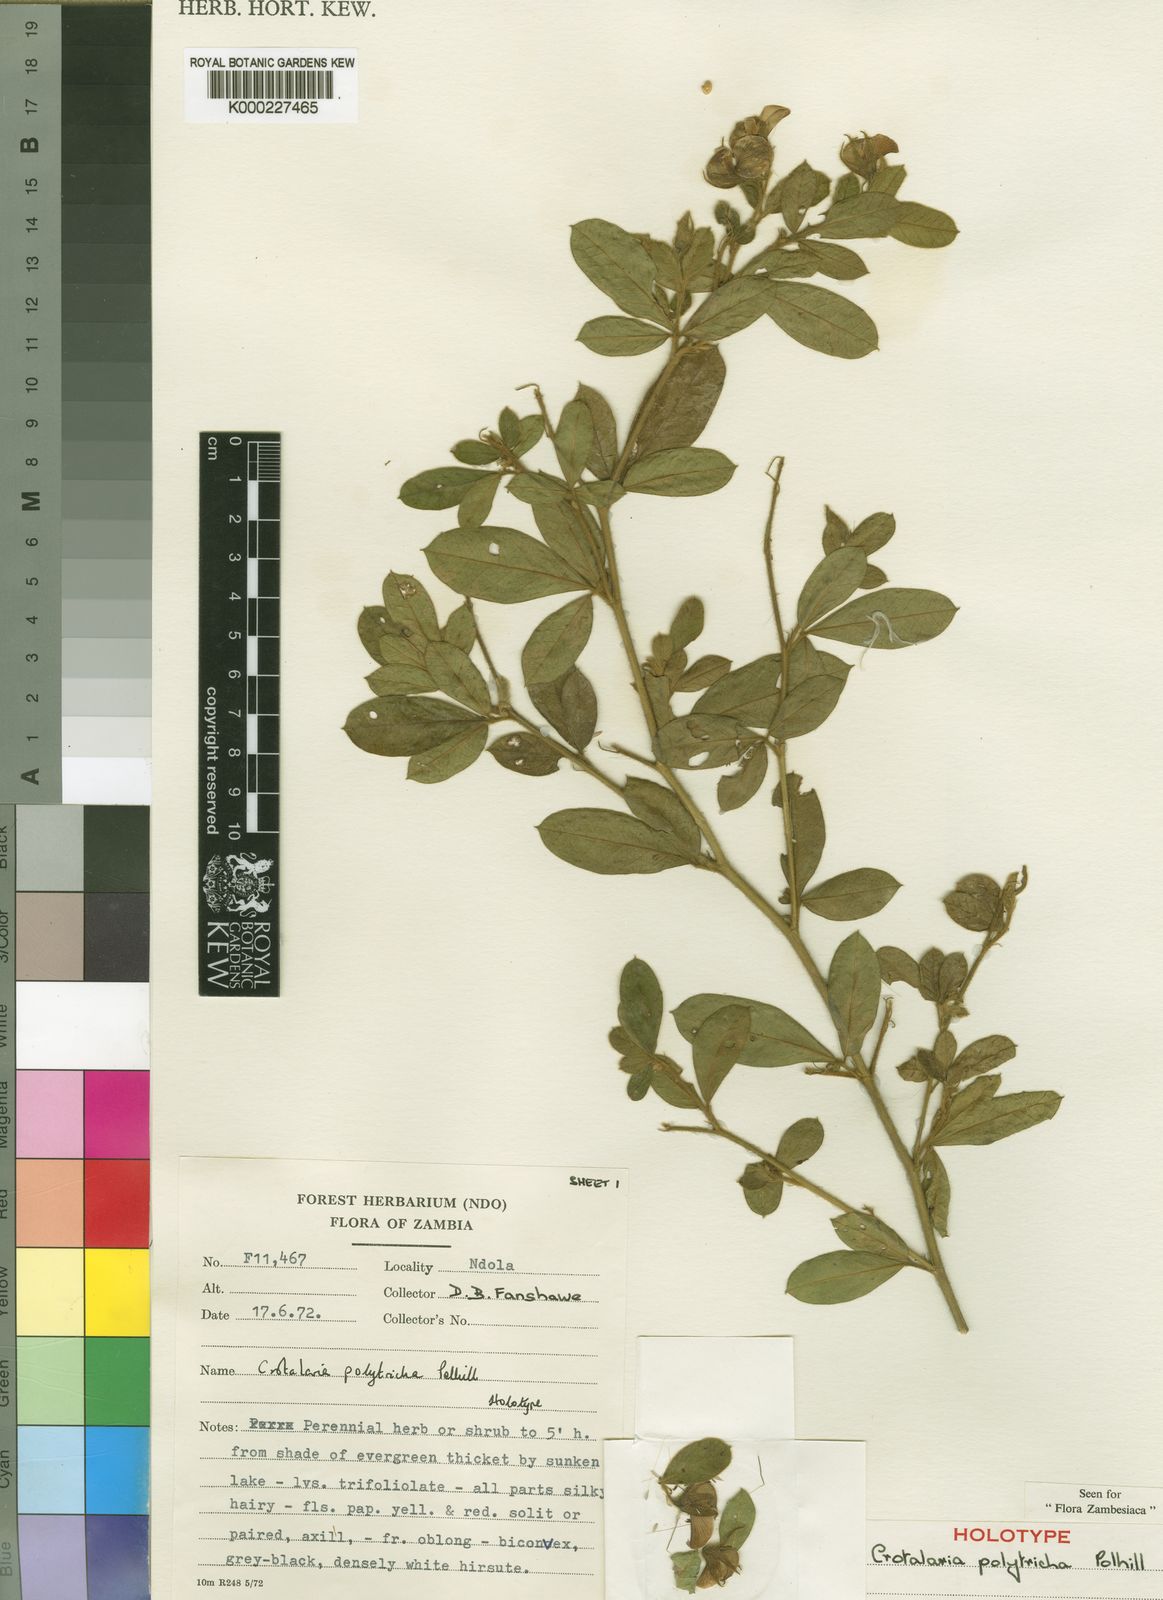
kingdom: Plantae
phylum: Tracheophyta
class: Magnoliopsida
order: Fabales
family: Fabaceae
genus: Crotalaria
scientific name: Crotalaria polytricha
